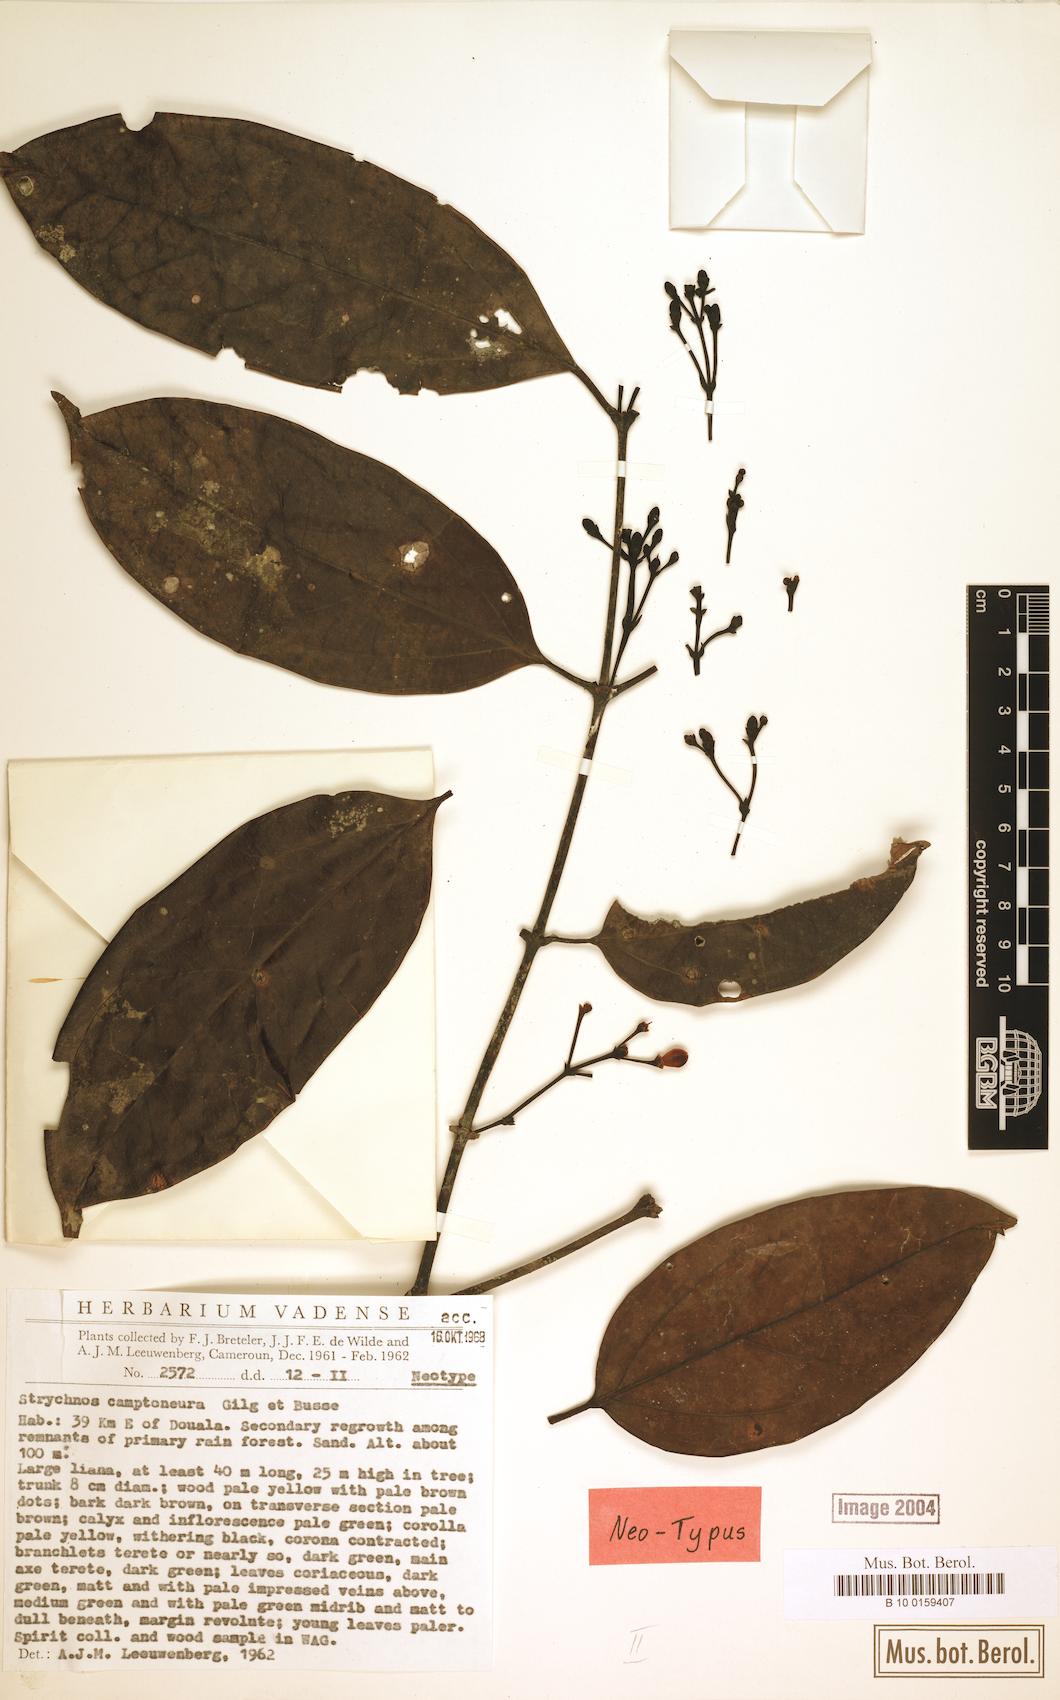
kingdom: Plantae
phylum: Tracheophyta
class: Magnoliopsida
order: Gentianales
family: Loganiaceae
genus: Strychnos
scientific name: Strychnos camptoneura
